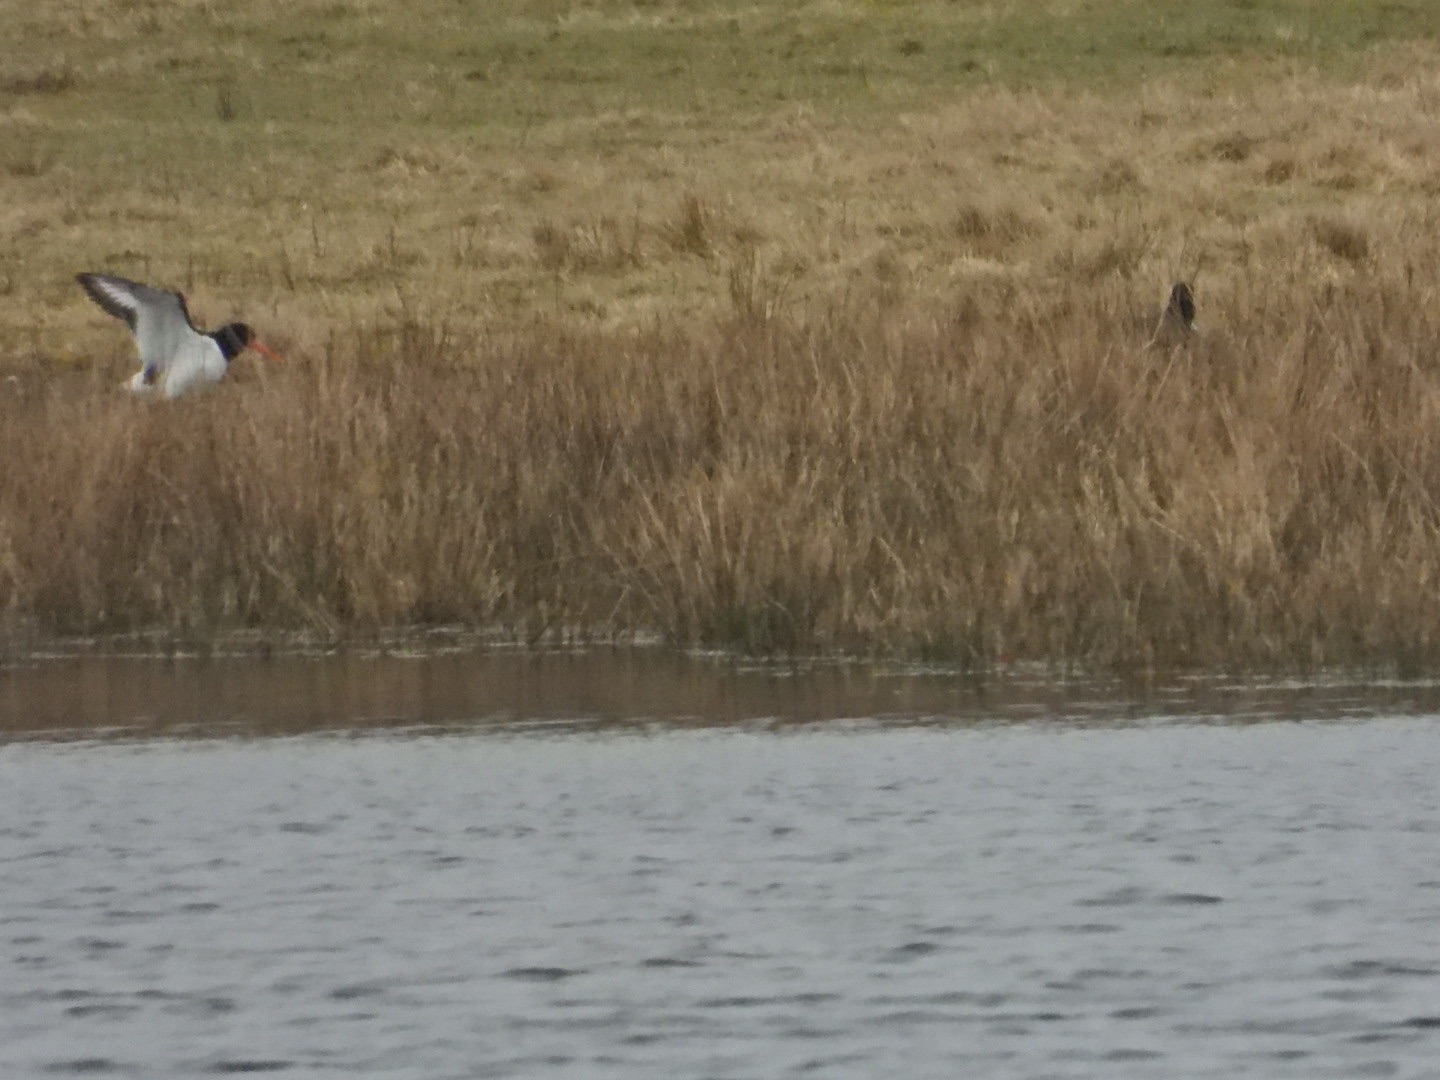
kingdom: Animalia
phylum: Chordata
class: Aves
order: Charadriiformes
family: Haematopodidae
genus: Haematopus
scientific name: Haematopus ostralegus
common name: Strandskade
